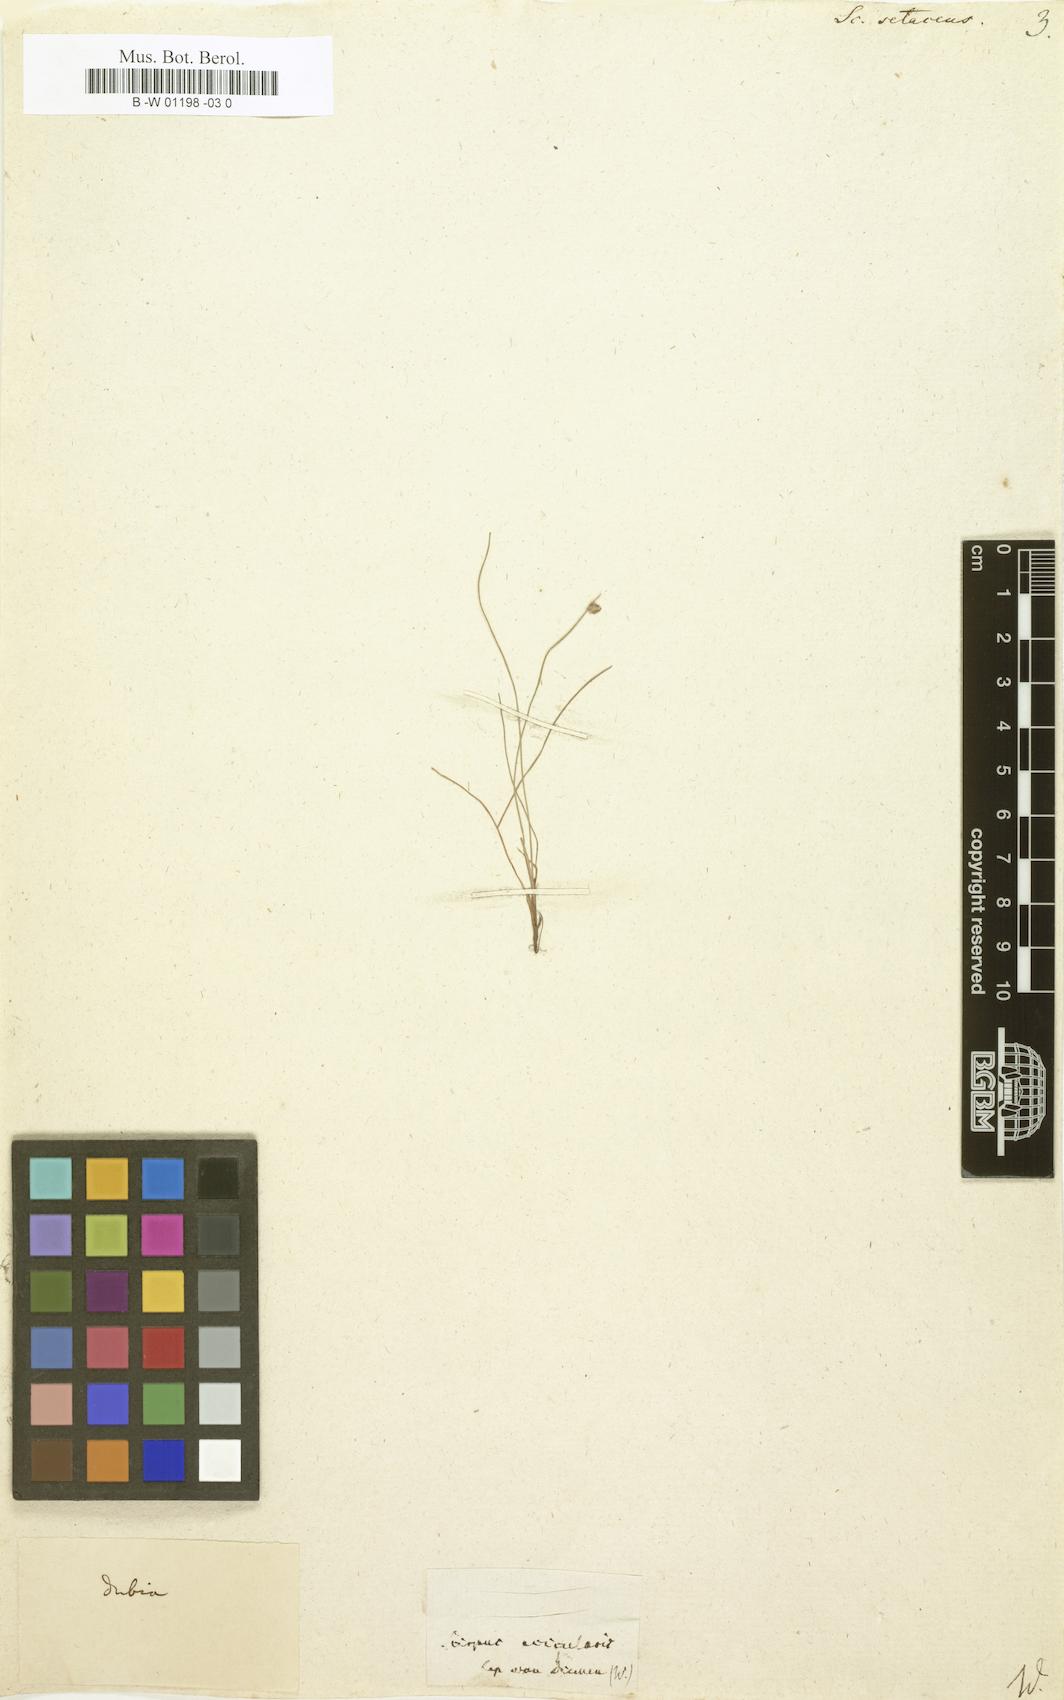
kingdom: Plantae
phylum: Tracheophyta
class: Liliopsida
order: Poales
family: Cyperaceae
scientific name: Cyperaceae
